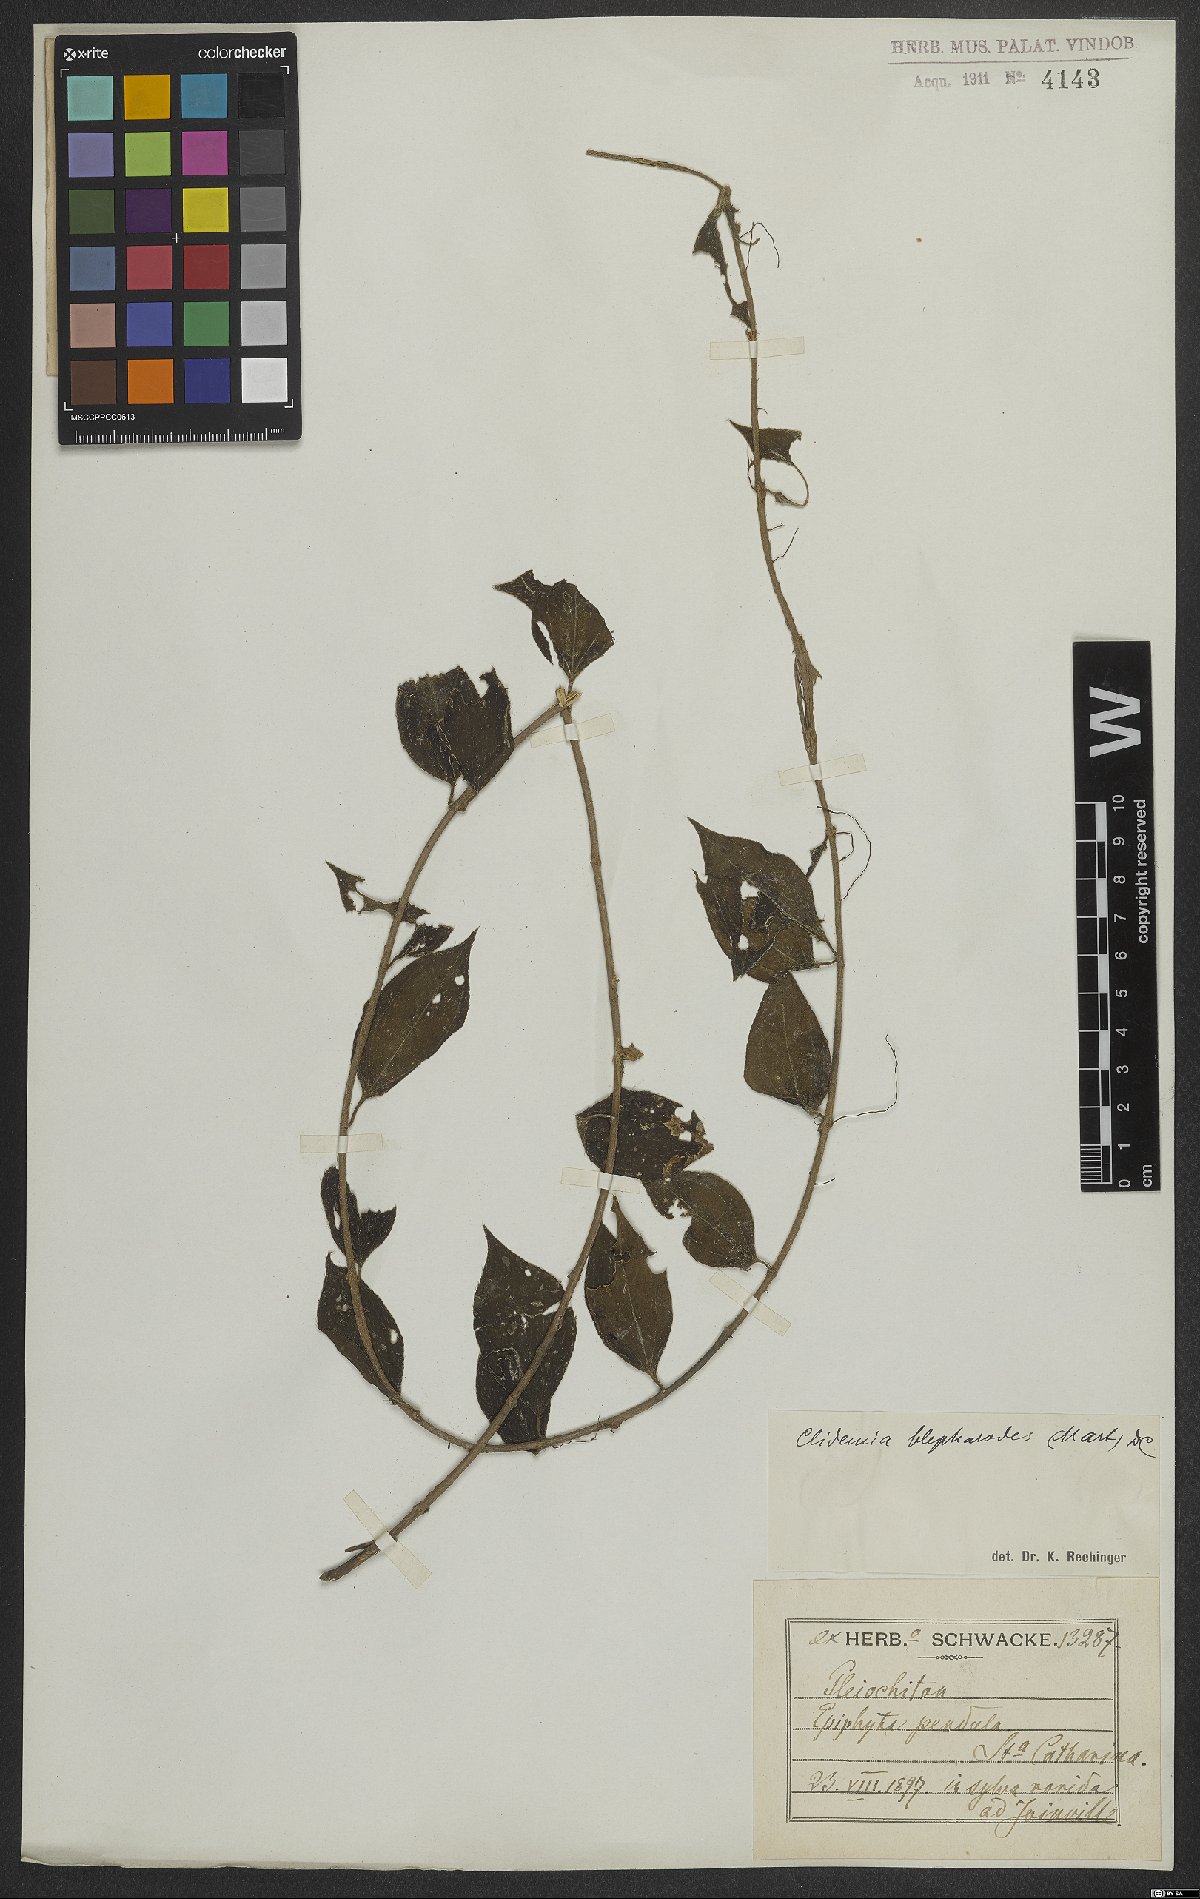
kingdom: Plantae
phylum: Tracheophyta
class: Magnoliopsida
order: Myrtales
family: Melastomataceae
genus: Miconia
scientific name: Miconia blepharodes
